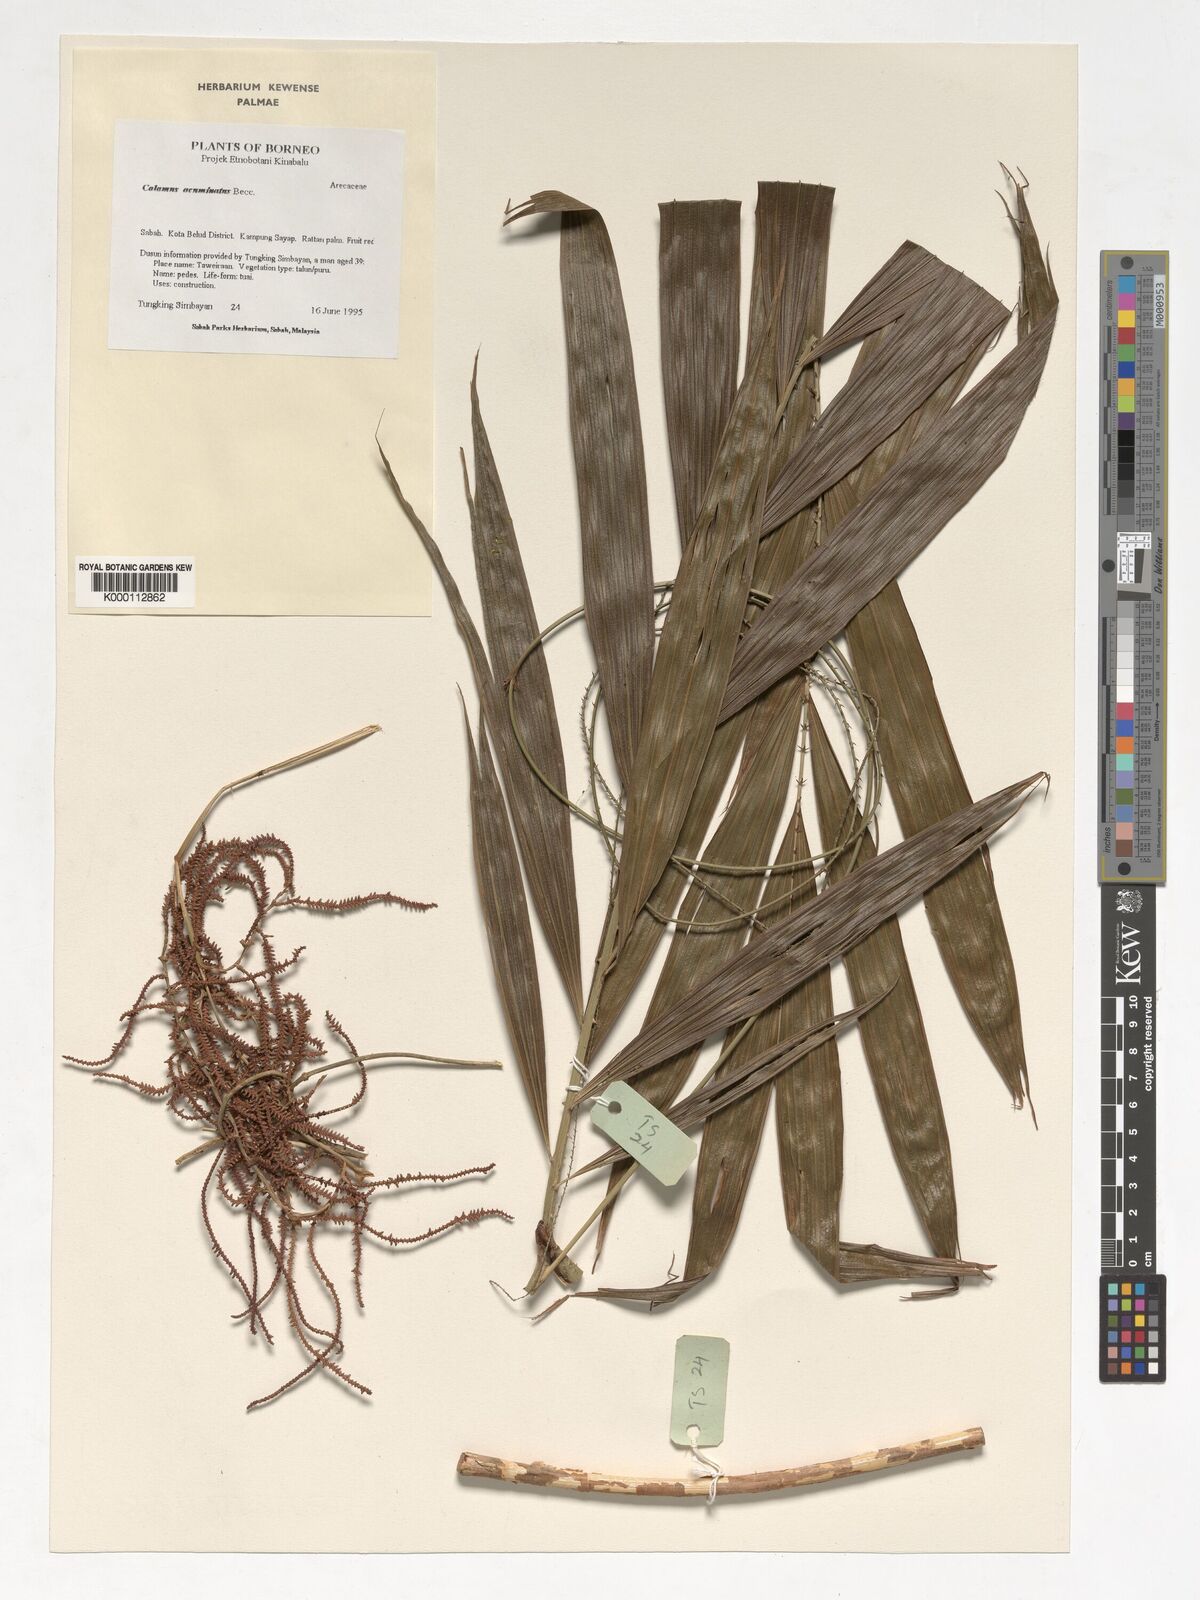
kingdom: Plantae
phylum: Tracheophyta
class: Liliopsida
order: Arecales
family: Arecaceae
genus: Calamus
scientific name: Calamus javensis
